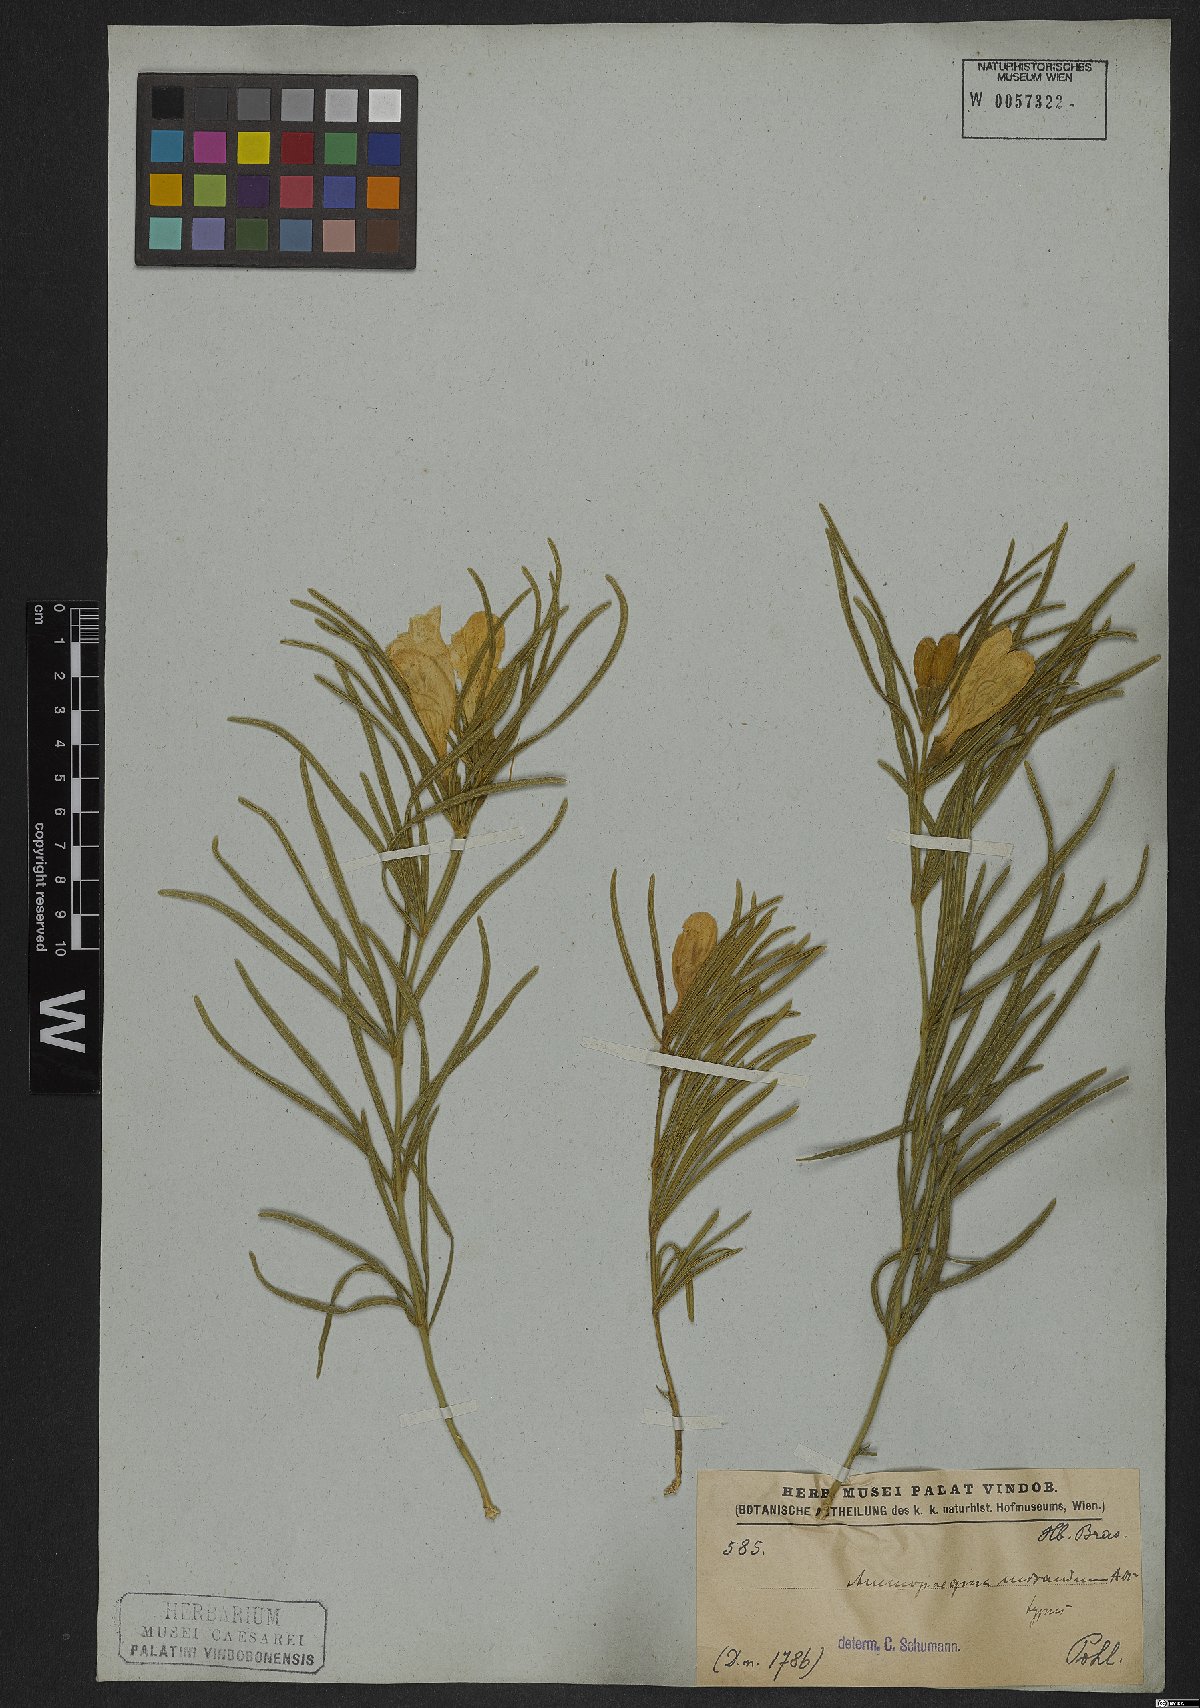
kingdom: Plantae
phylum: Tracheophyta
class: Magnoliopsida
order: Lamiales
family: Bignoniaceae
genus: Anemopaegma
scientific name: Anemopaegma arvense
